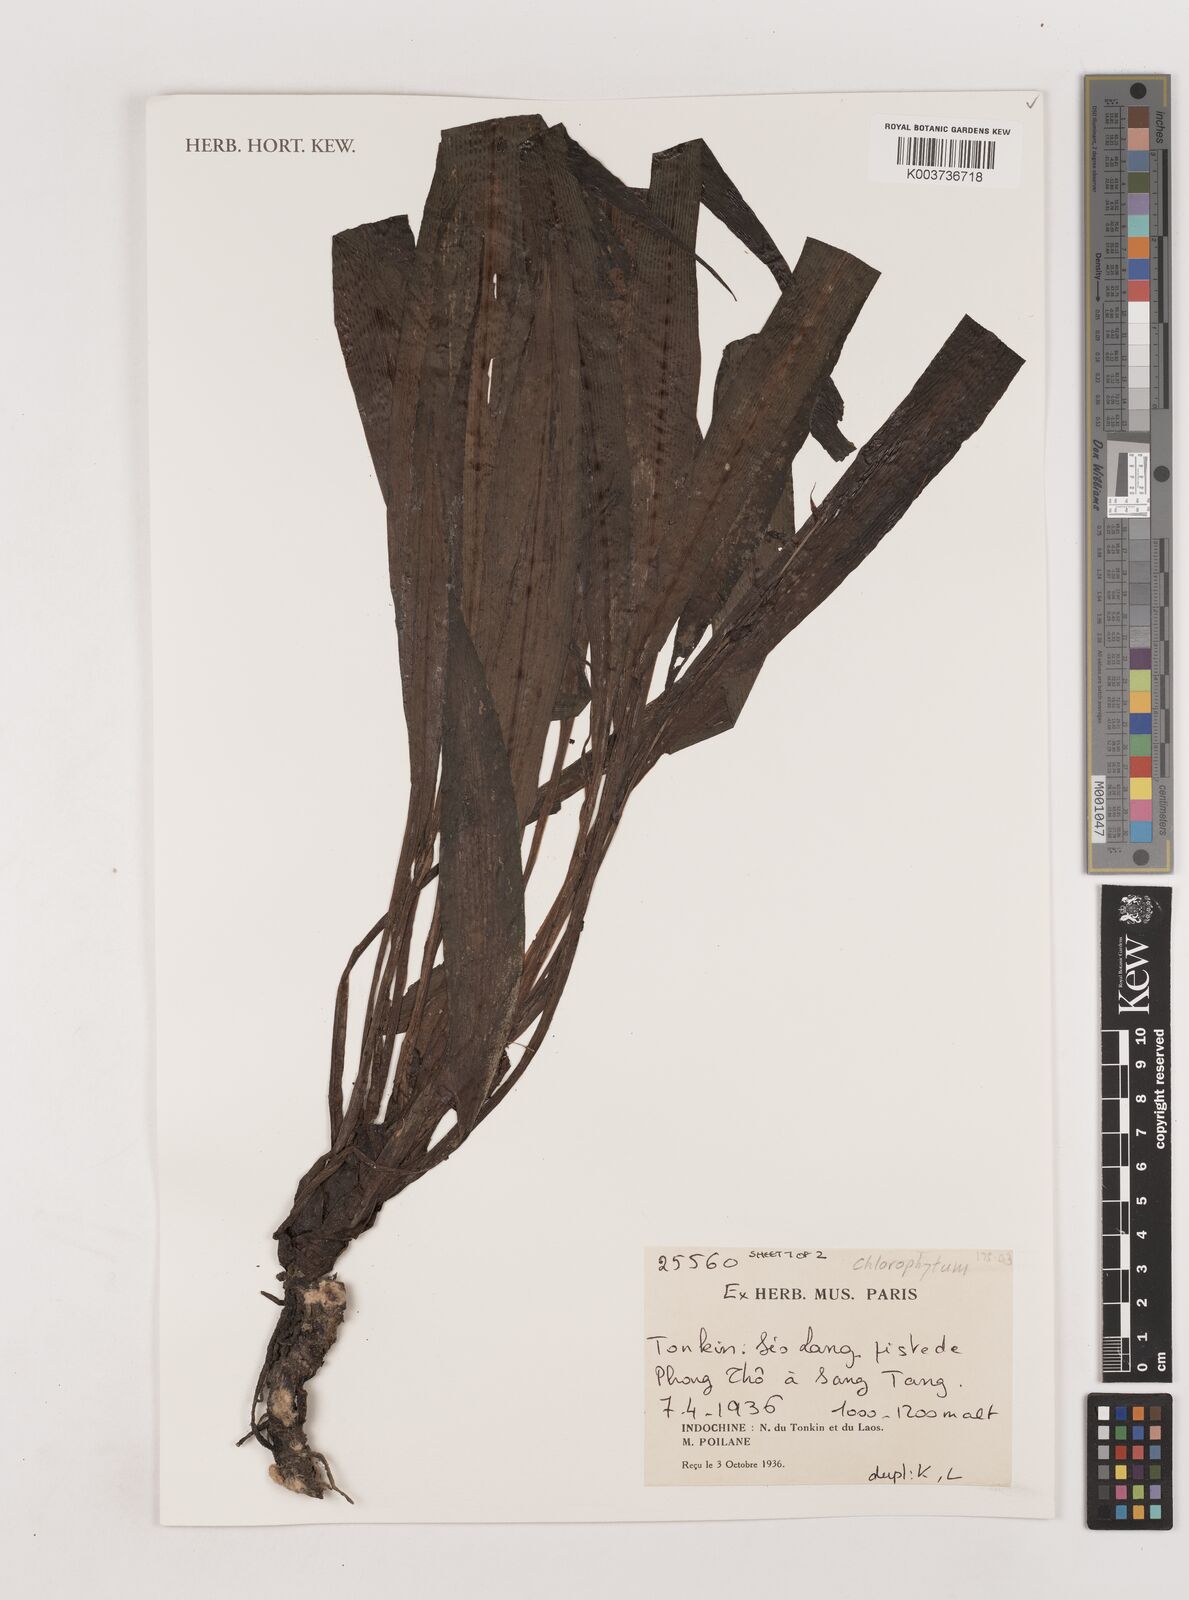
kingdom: Plantae
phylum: Tracheophyta
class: Liliopsida
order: Asparagales
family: Asparagaceae
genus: Chlorophytum
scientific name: Chlorophytum
